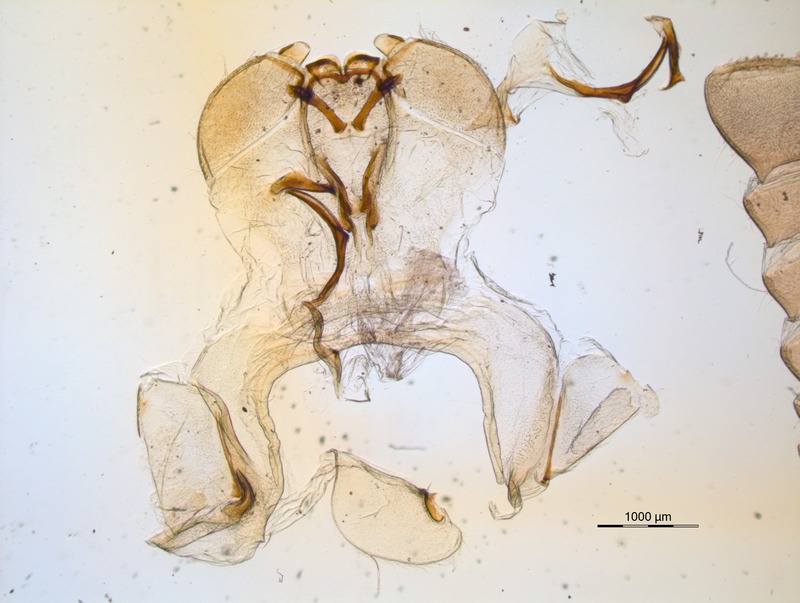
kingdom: Animalia
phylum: Arthropoda
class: Diplopoda
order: Sphaerotheriida
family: Zephroniidae
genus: Prionobelum
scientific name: Prionobelum durum
